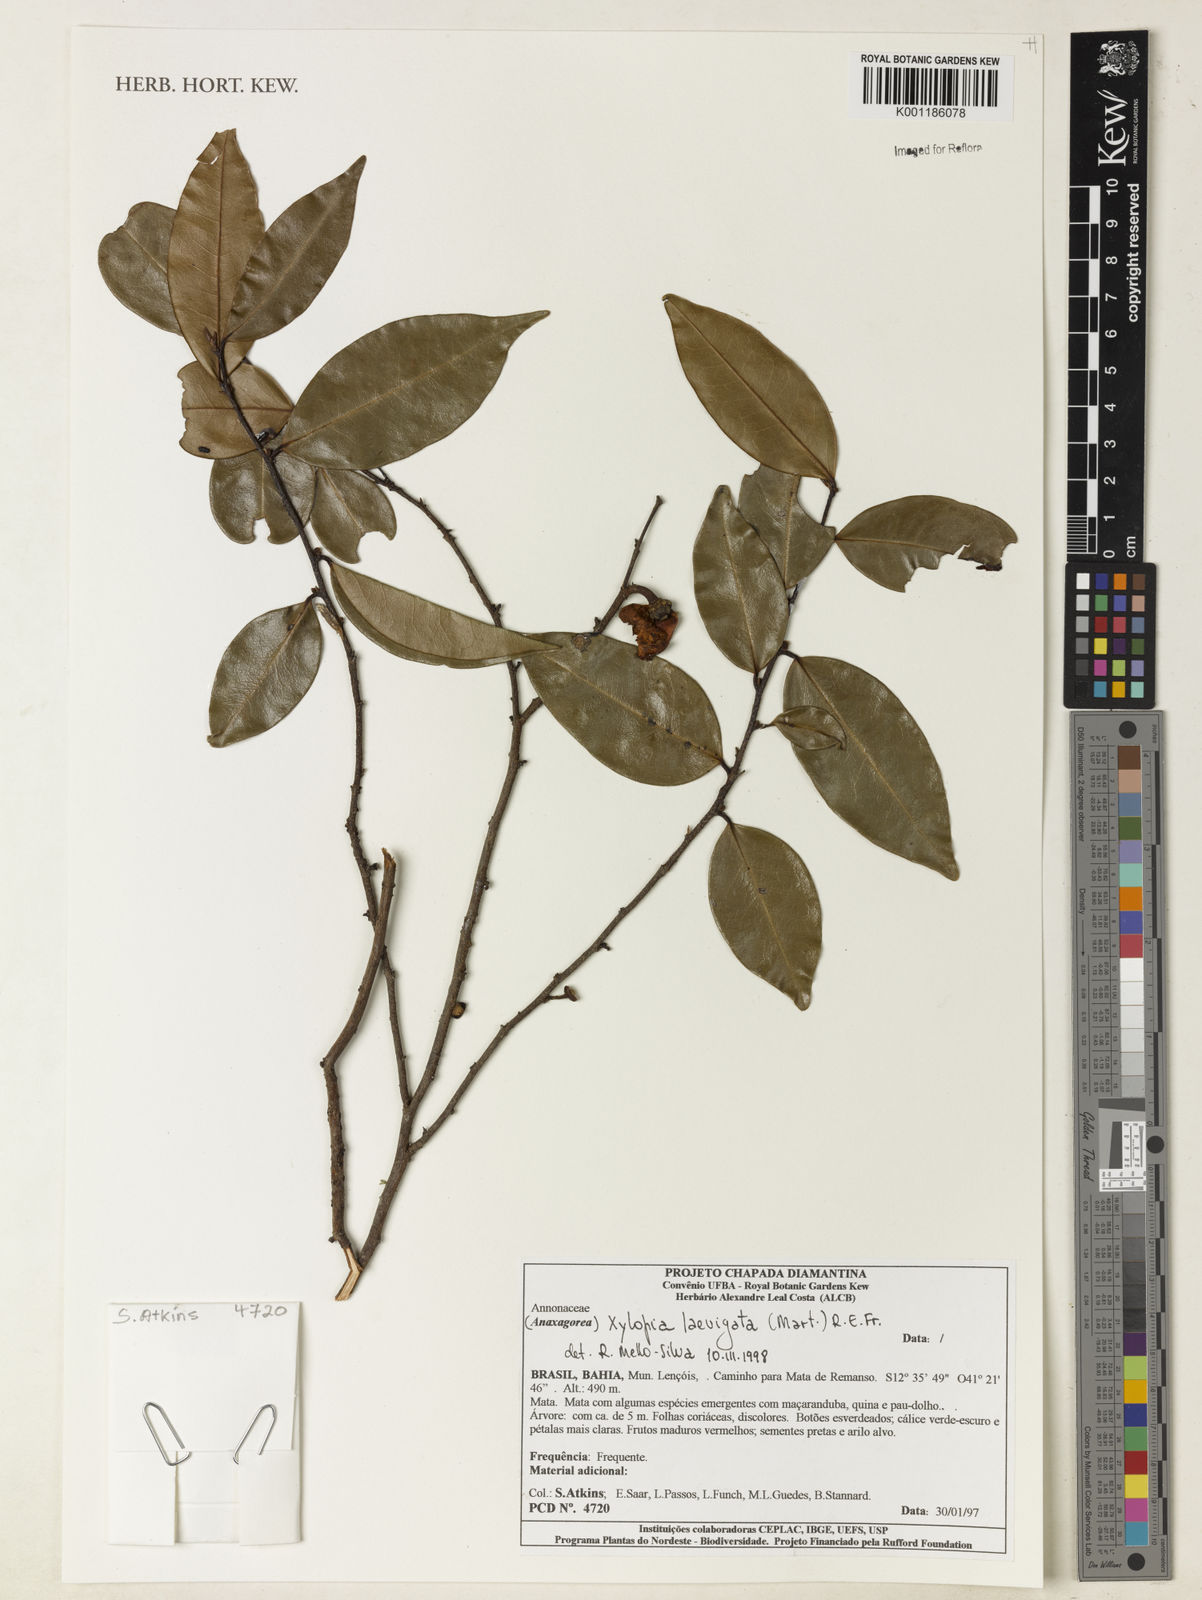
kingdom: Plantae
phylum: Tracheophyta
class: Magnoliopsida
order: Magnoliales
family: Annonaceae
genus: Xylopia
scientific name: Xylopia laevigata
